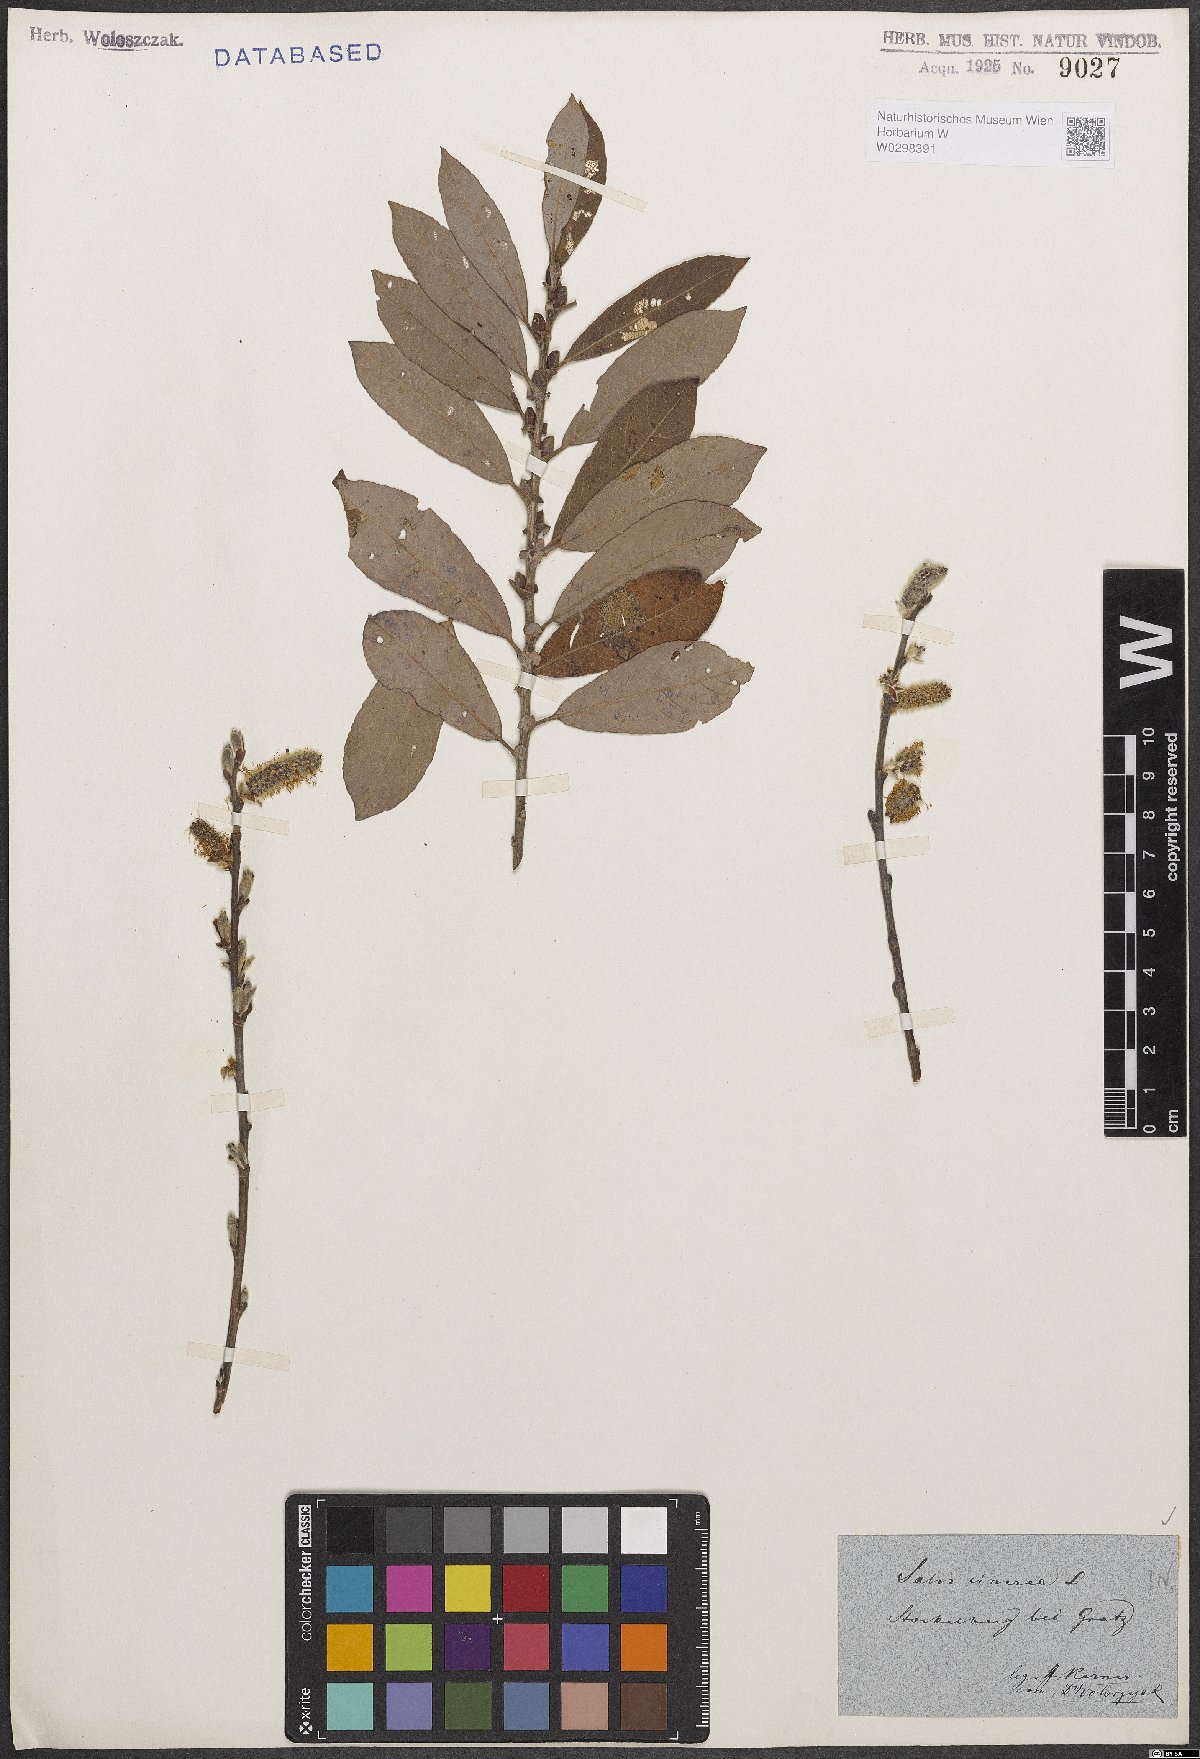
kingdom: Plantae
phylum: Tracheophyta
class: Magnoliopsida
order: Malpighiales
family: Salicaceae
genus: Salix
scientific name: Salix cinerea
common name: Common sallow
